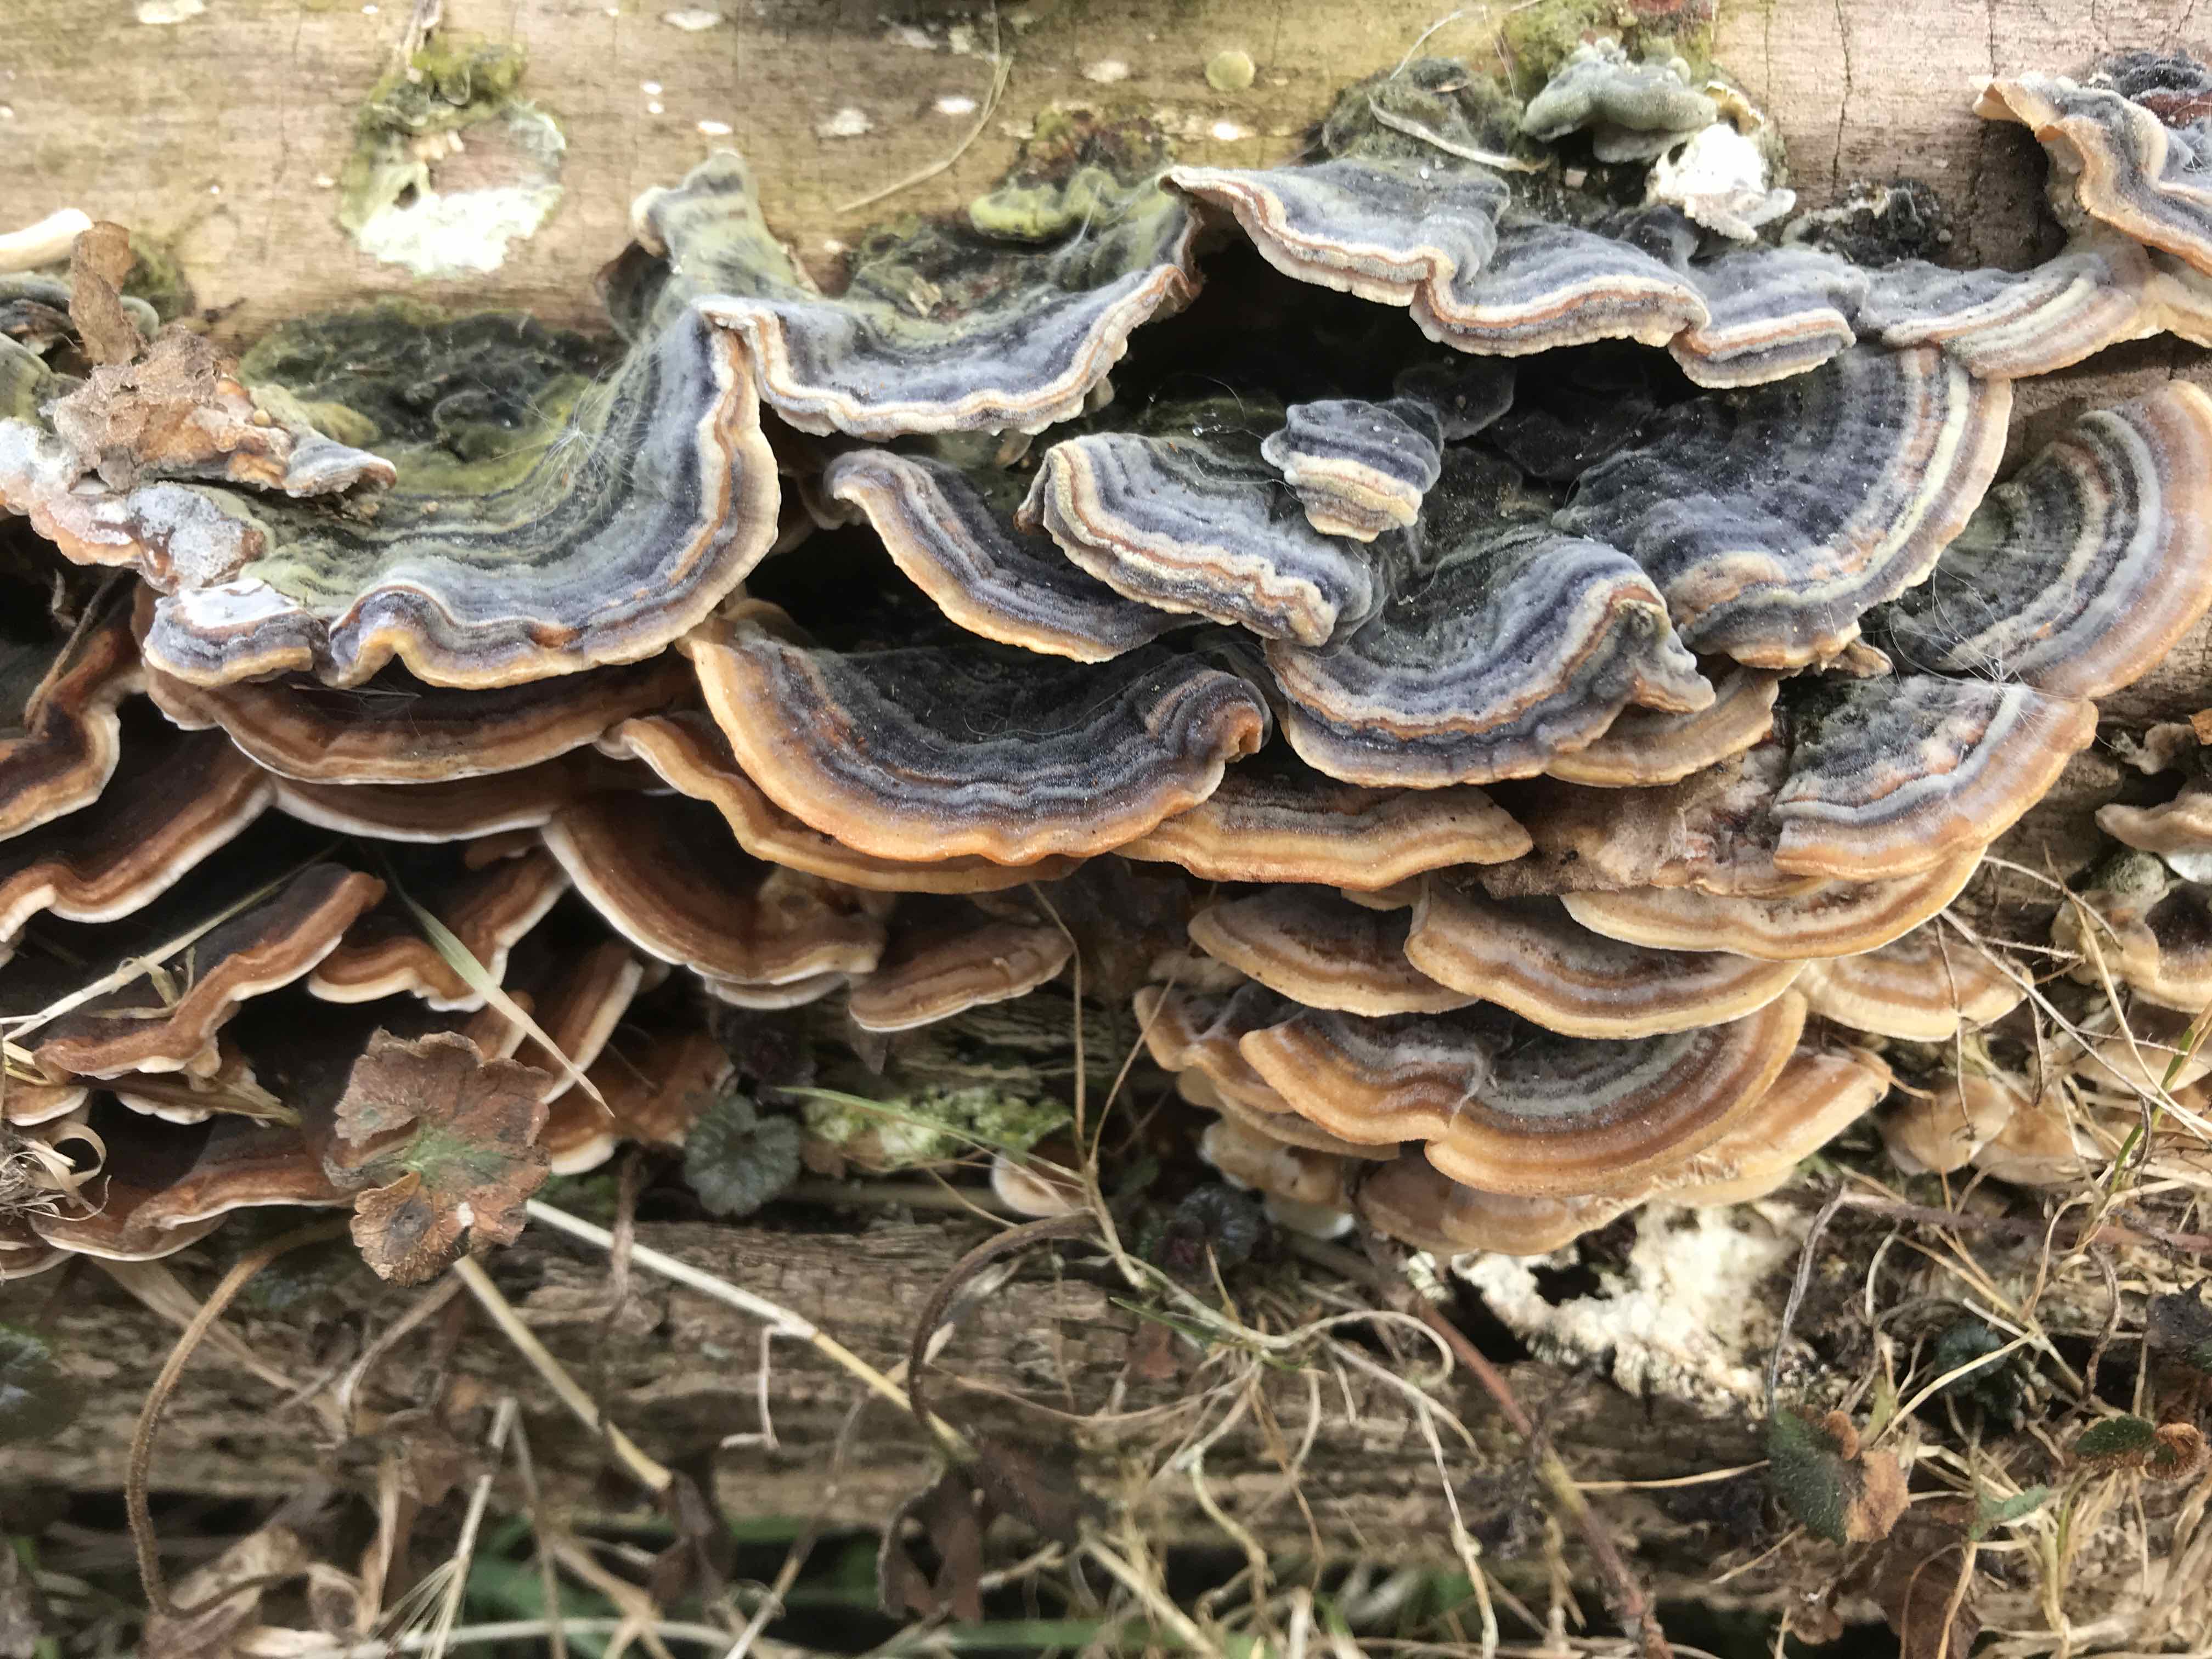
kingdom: Fungi
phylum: Basidiomycota
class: Agaricomycetes
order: Polyporales
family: Polyporaceae
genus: Trametes
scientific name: Trametes versicolor
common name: broget læderporesvamp
